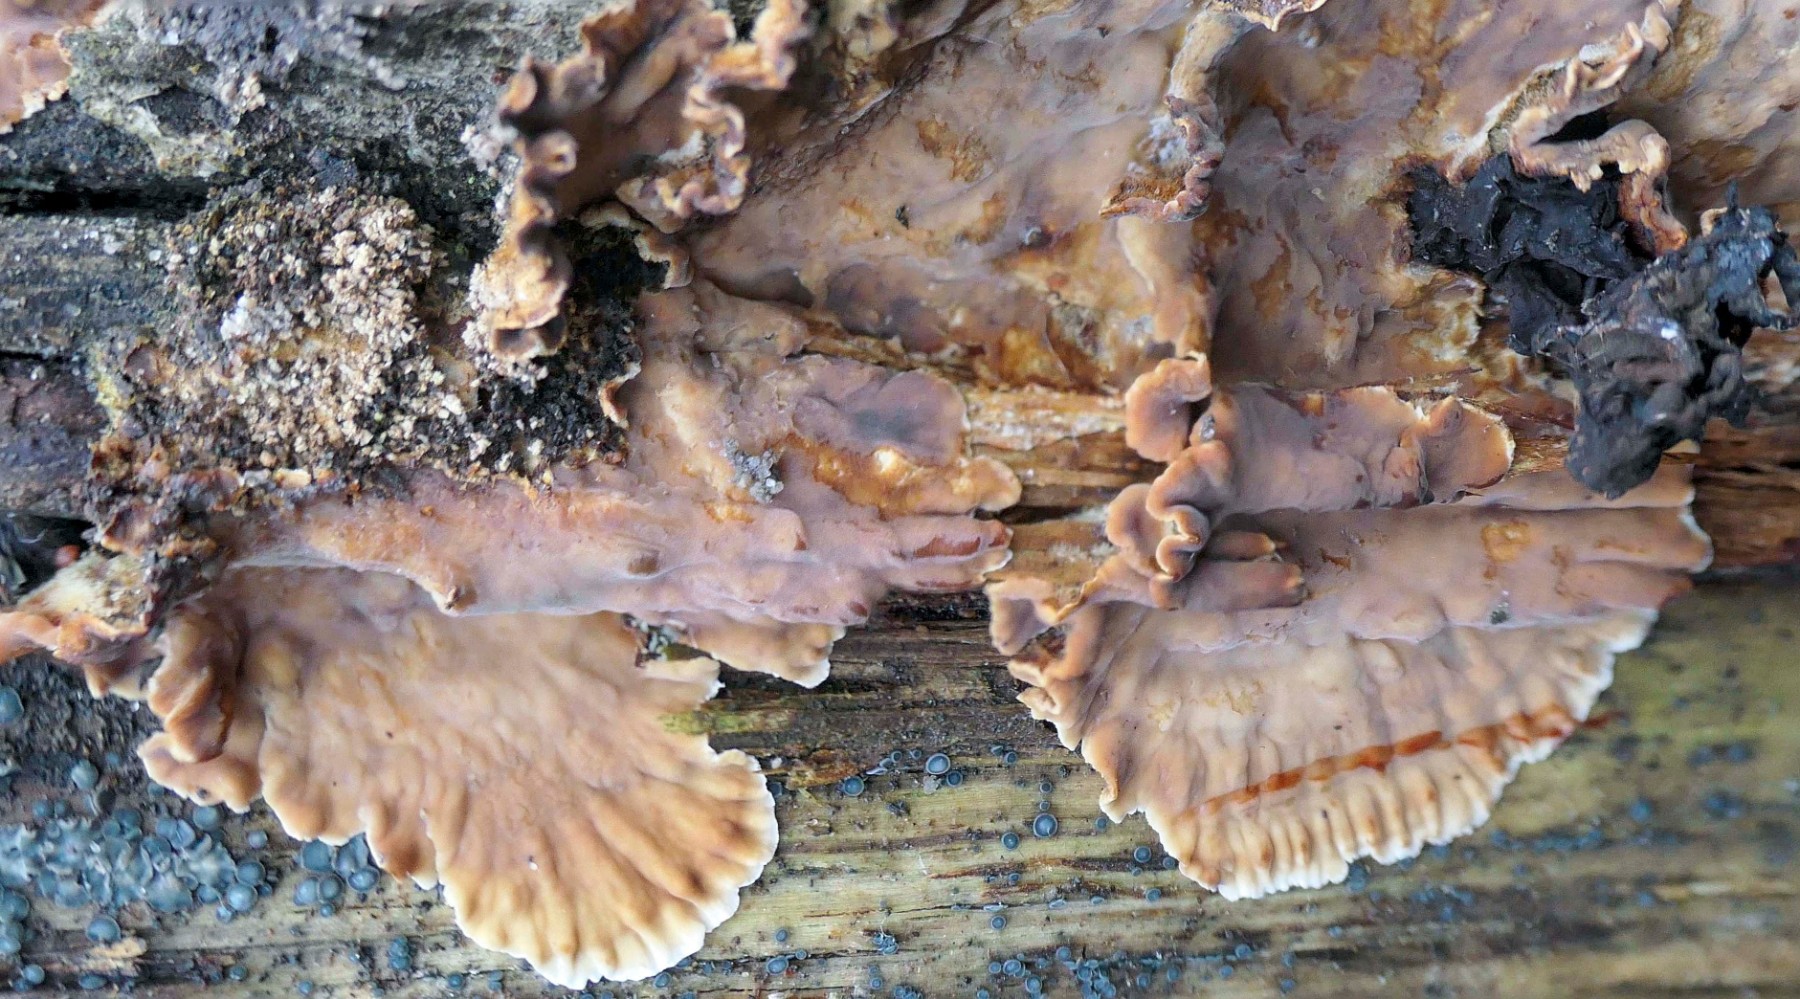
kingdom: Fungi
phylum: Basidiomycota
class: Agaricomycetes
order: Russulales
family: Stereaceae
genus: Stereum
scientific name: Stereum gausapatum
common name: tynd lædersvamp
